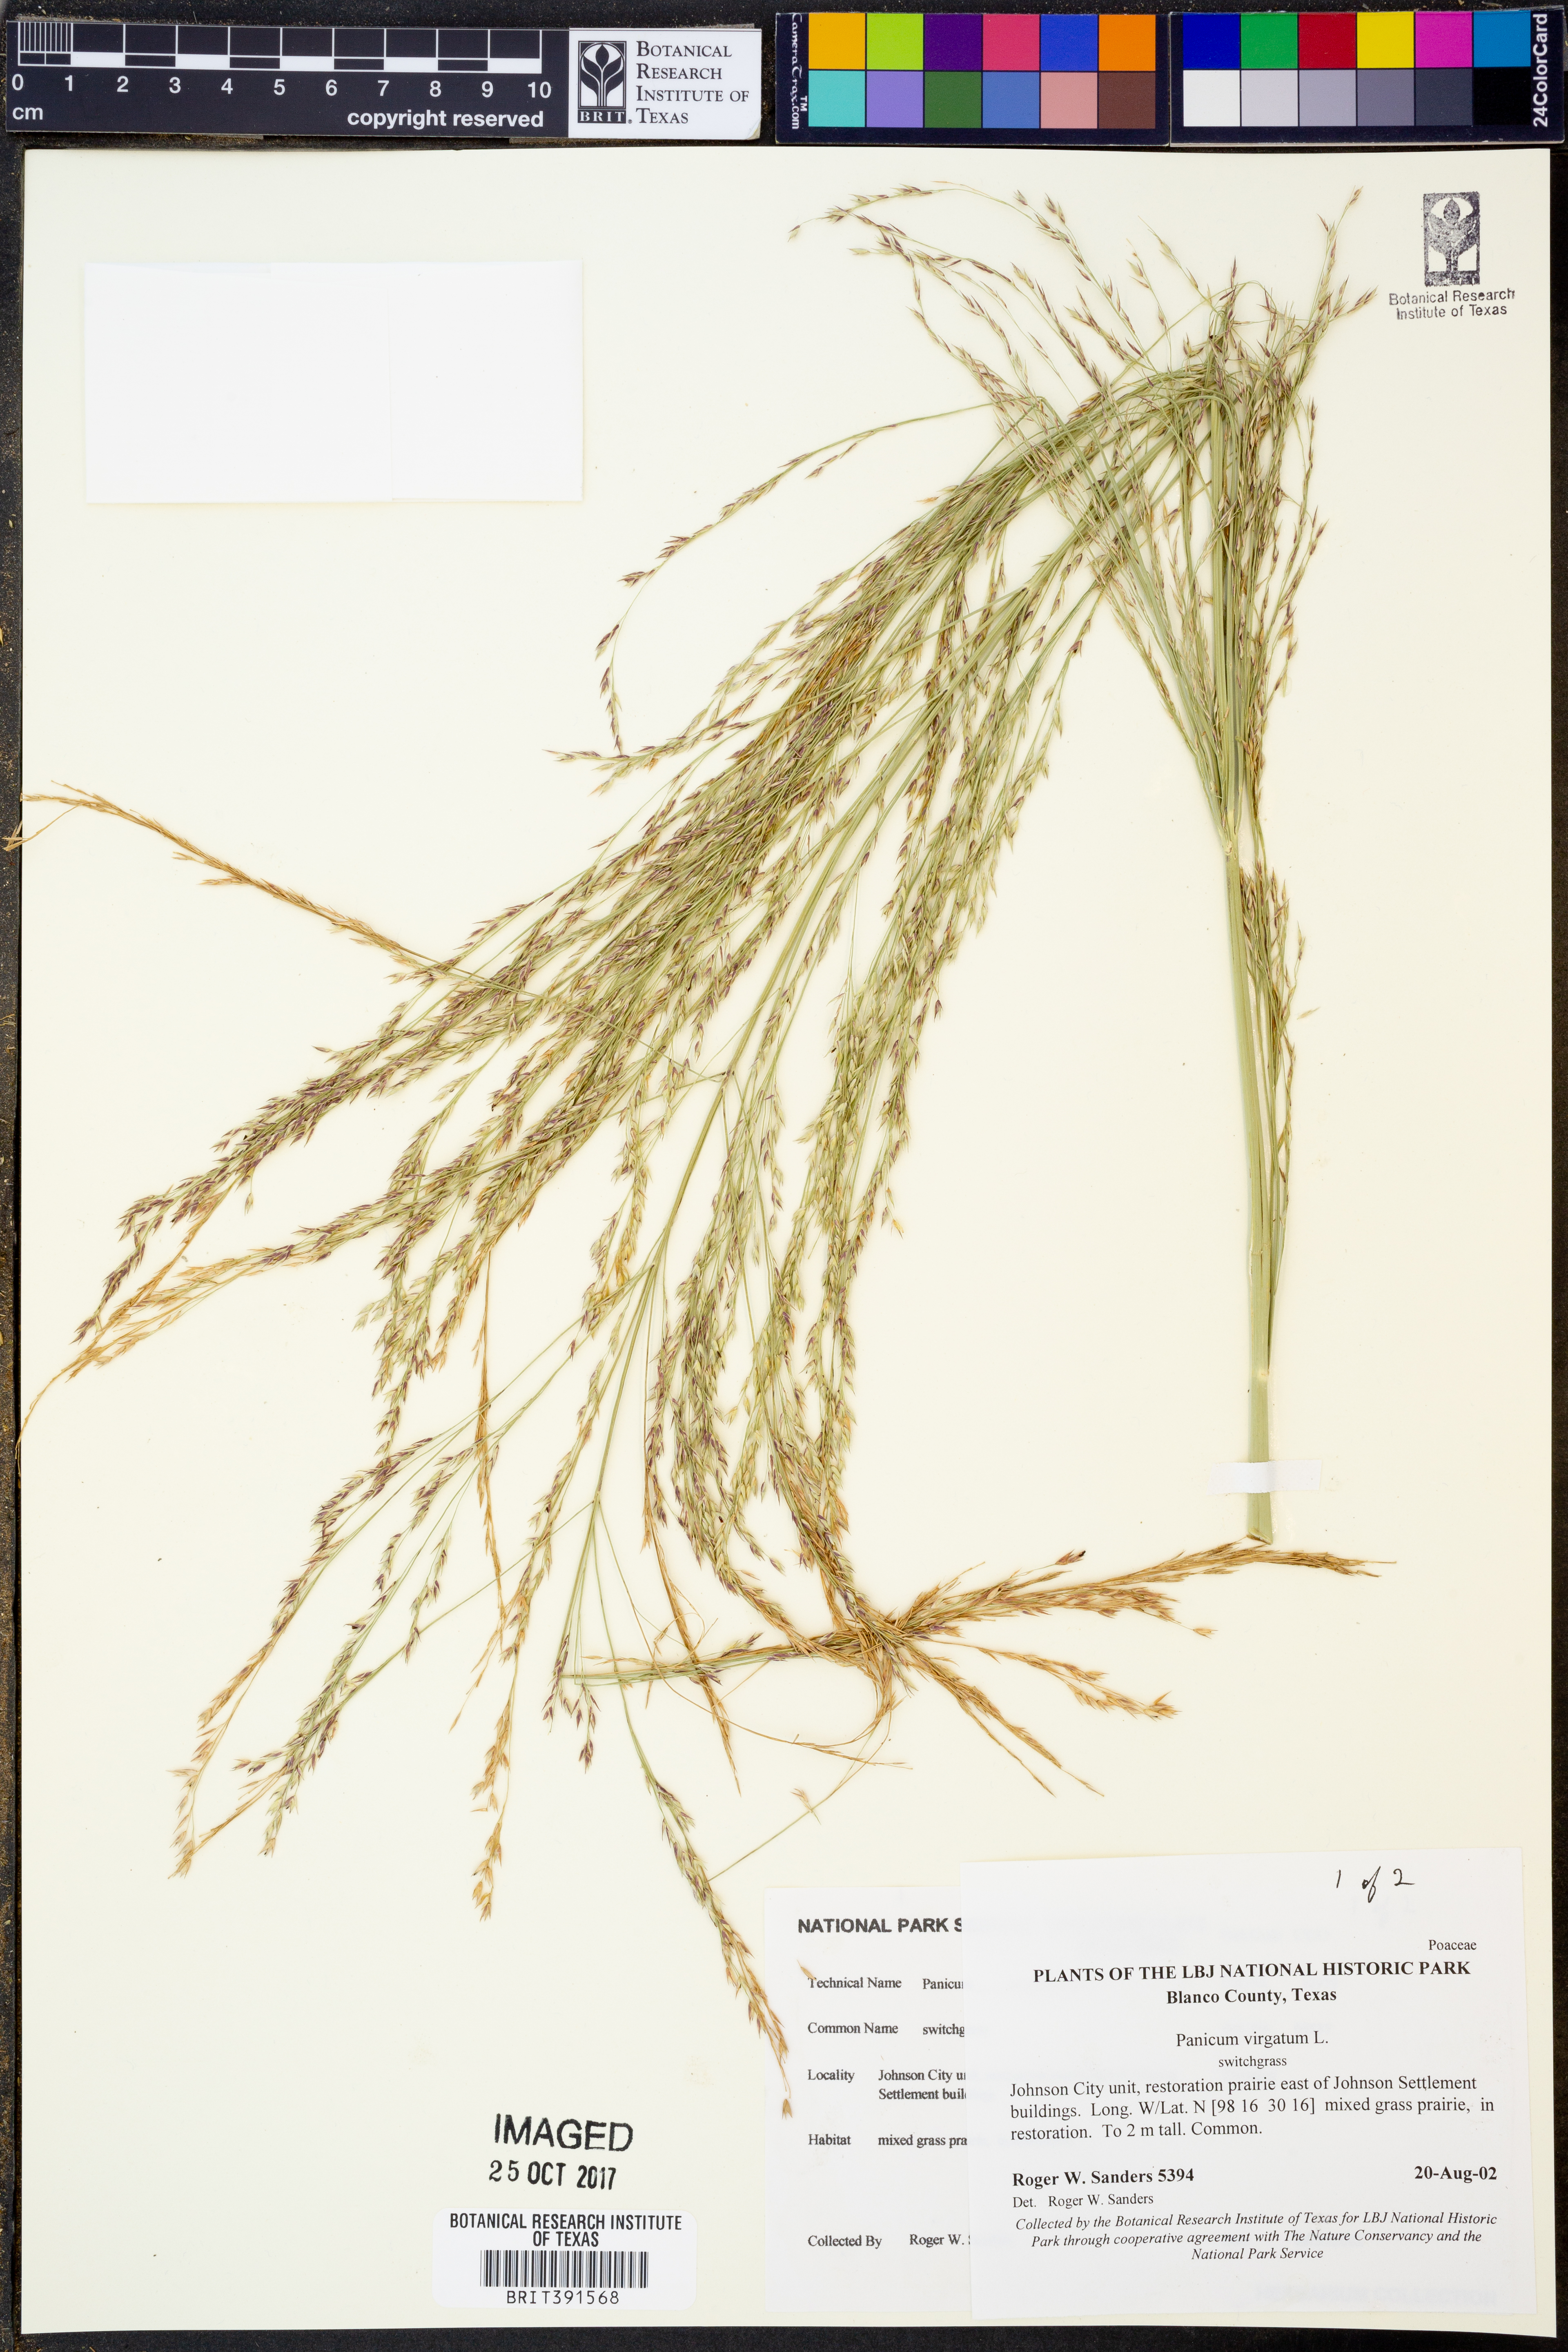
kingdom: Plantae
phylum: Tracheophyta
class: Liliopsida
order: Poales
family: Poaceae
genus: Panicum
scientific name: Panicum virgatum
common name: Switchgrass
